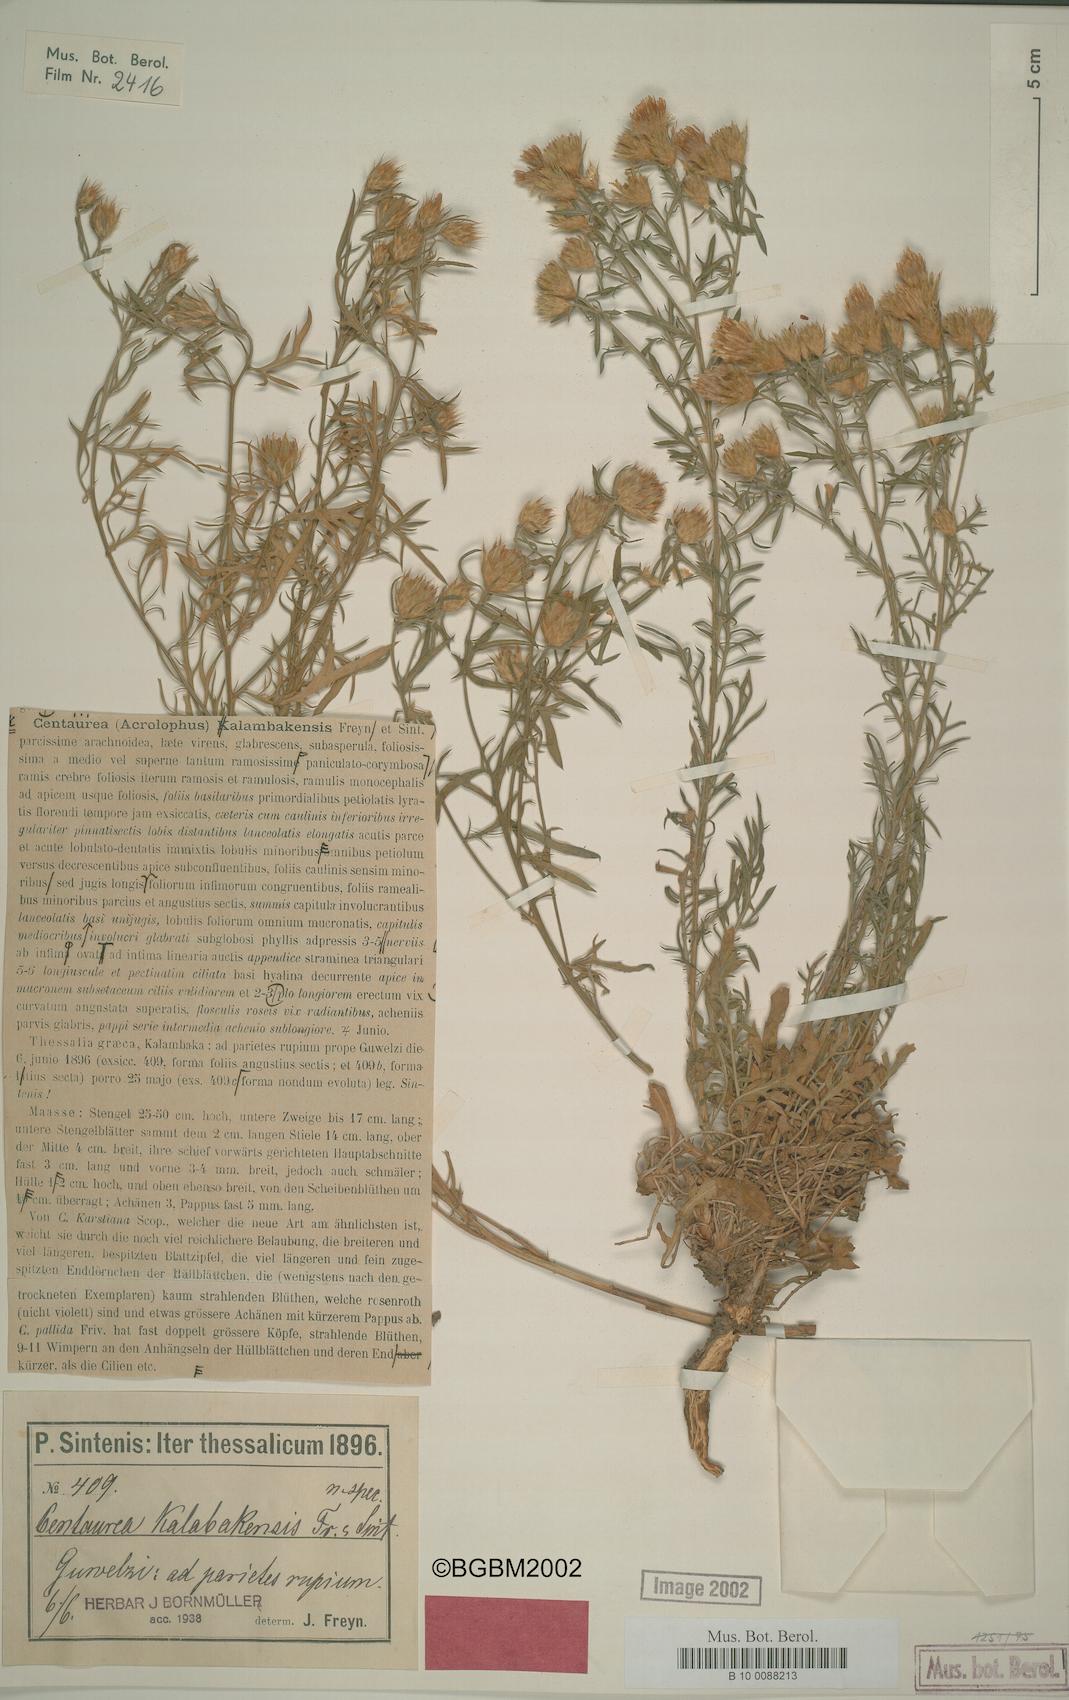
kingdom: Plantae
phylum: Tracheophyta
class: Magnoliopsida
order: Asterales
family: Asteraceae
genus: Centaurea
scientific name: Centaurea kalambakensis
